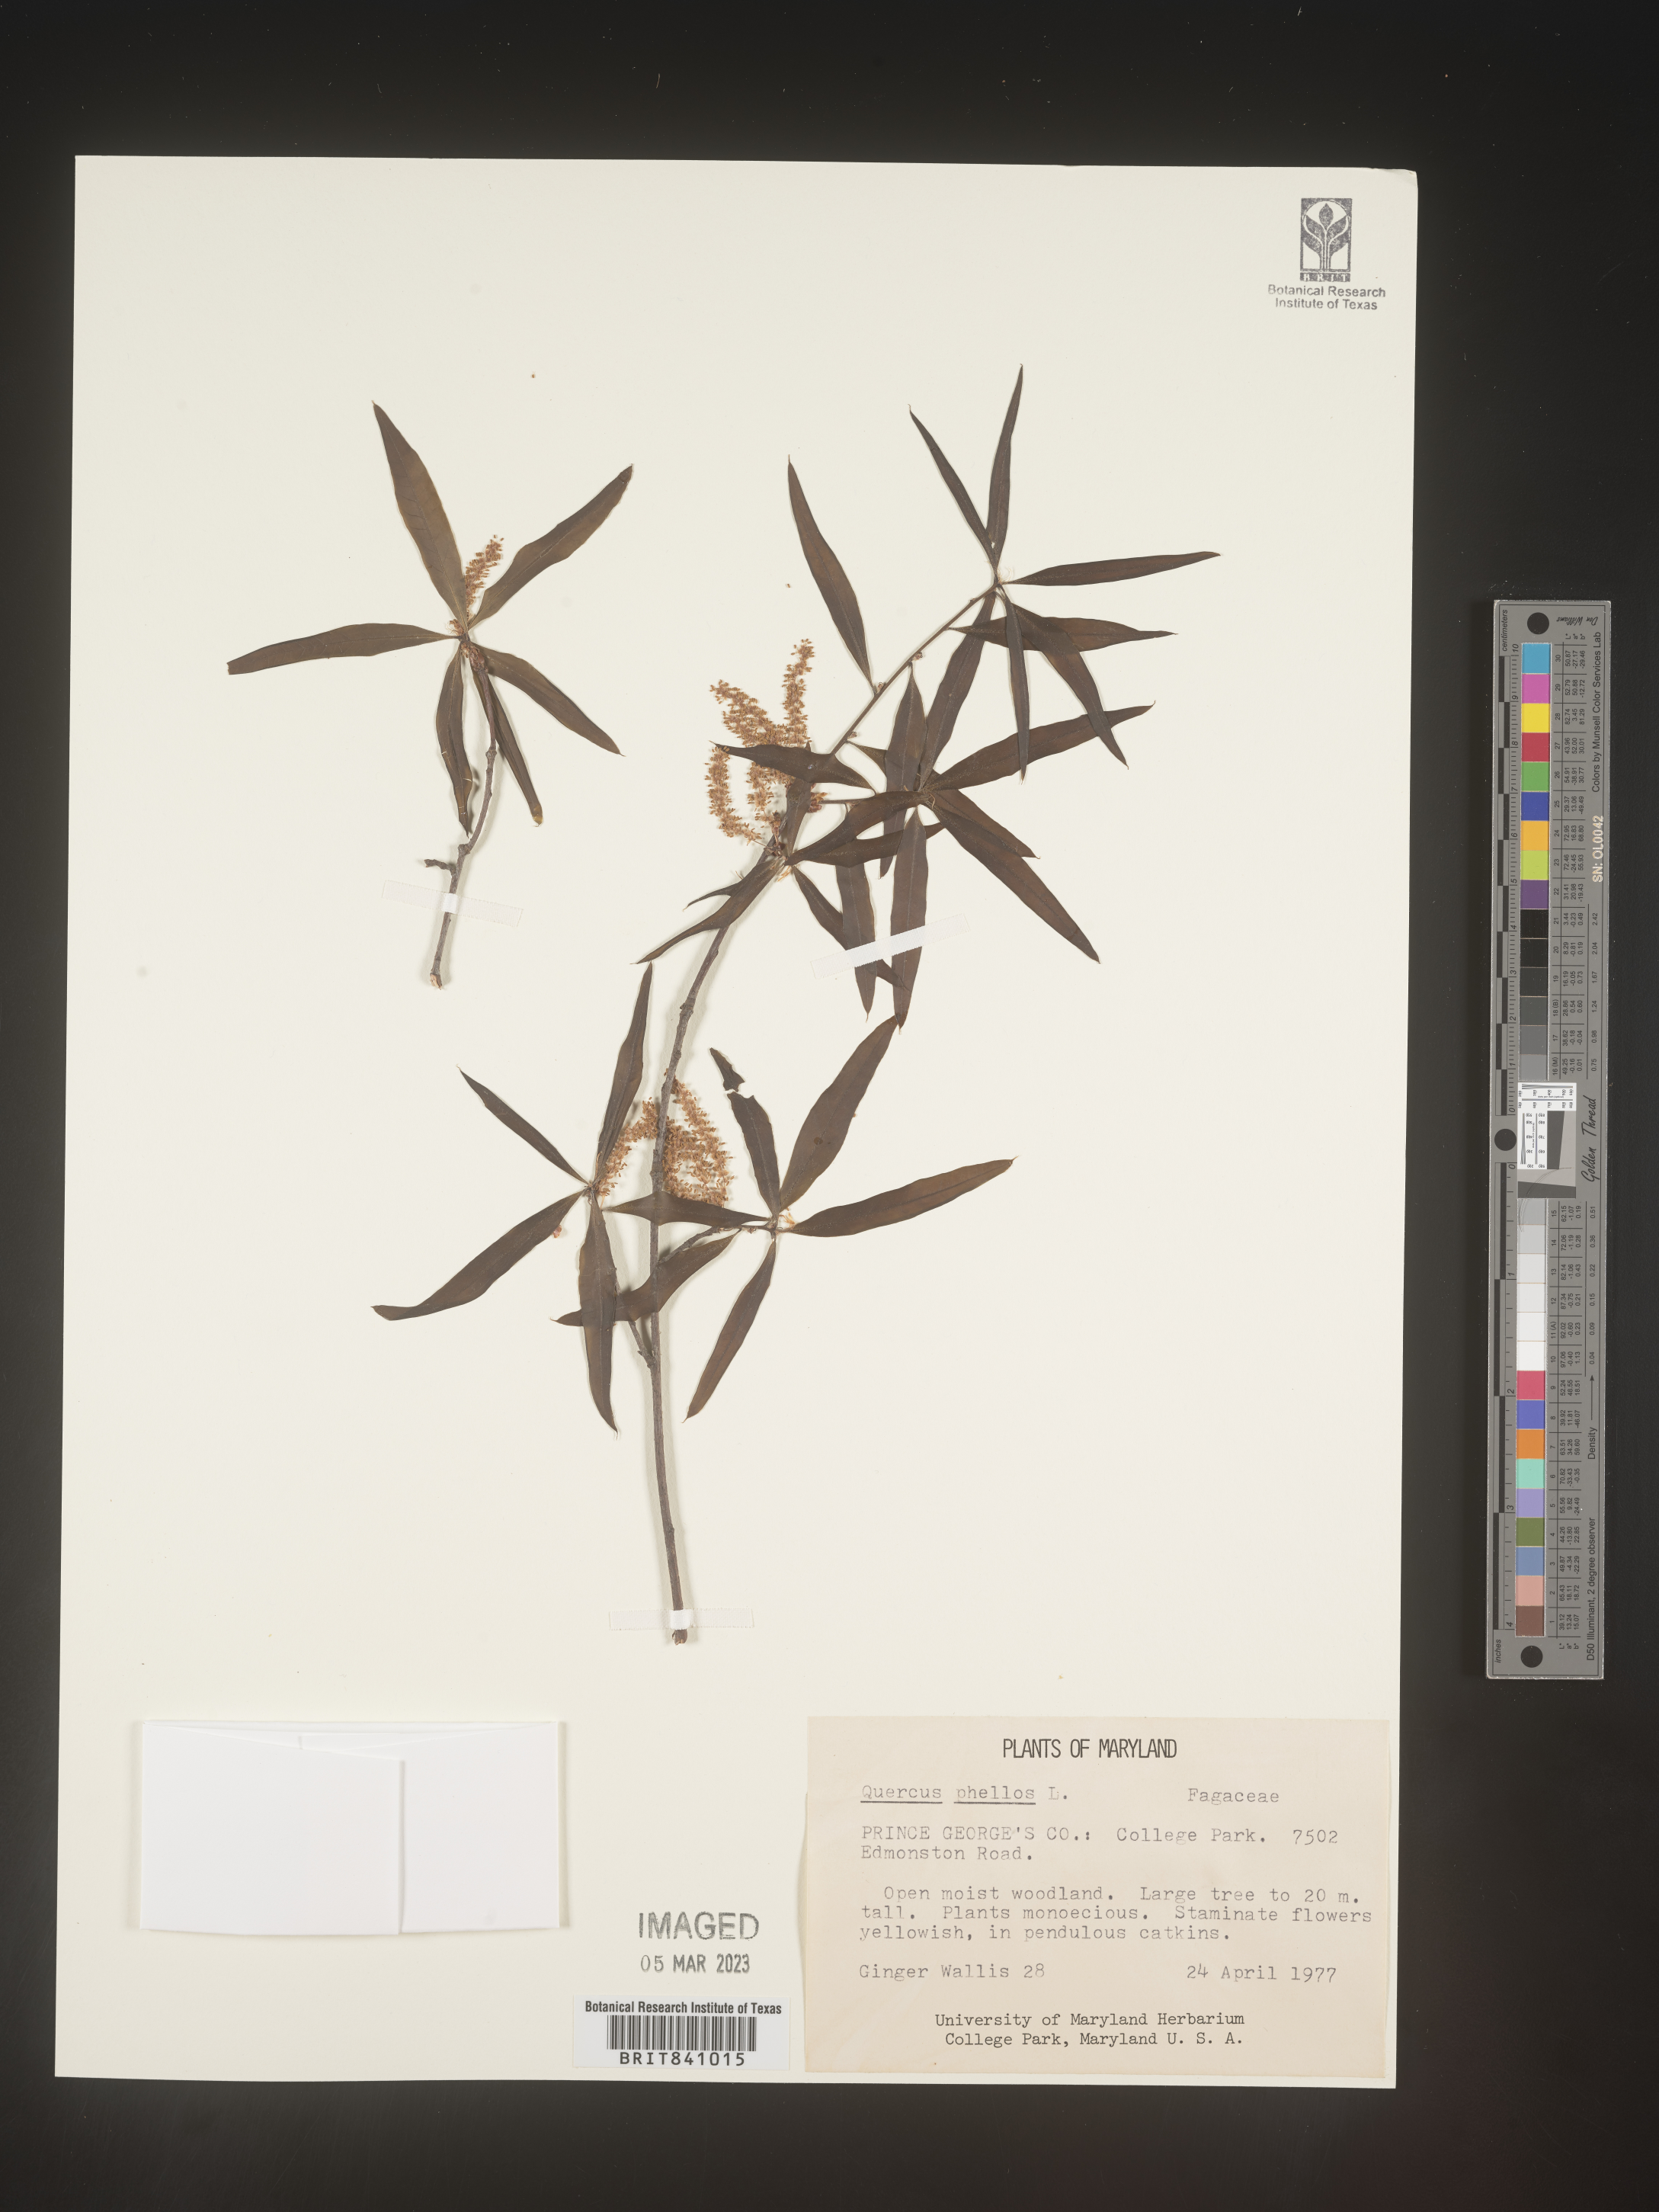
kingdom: Plantae
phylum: Tracheophyta
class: Magnoliopsida
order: Fagales
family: Fagaceae
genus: Quercus
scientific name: Quercus phellos
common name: Willow oak
